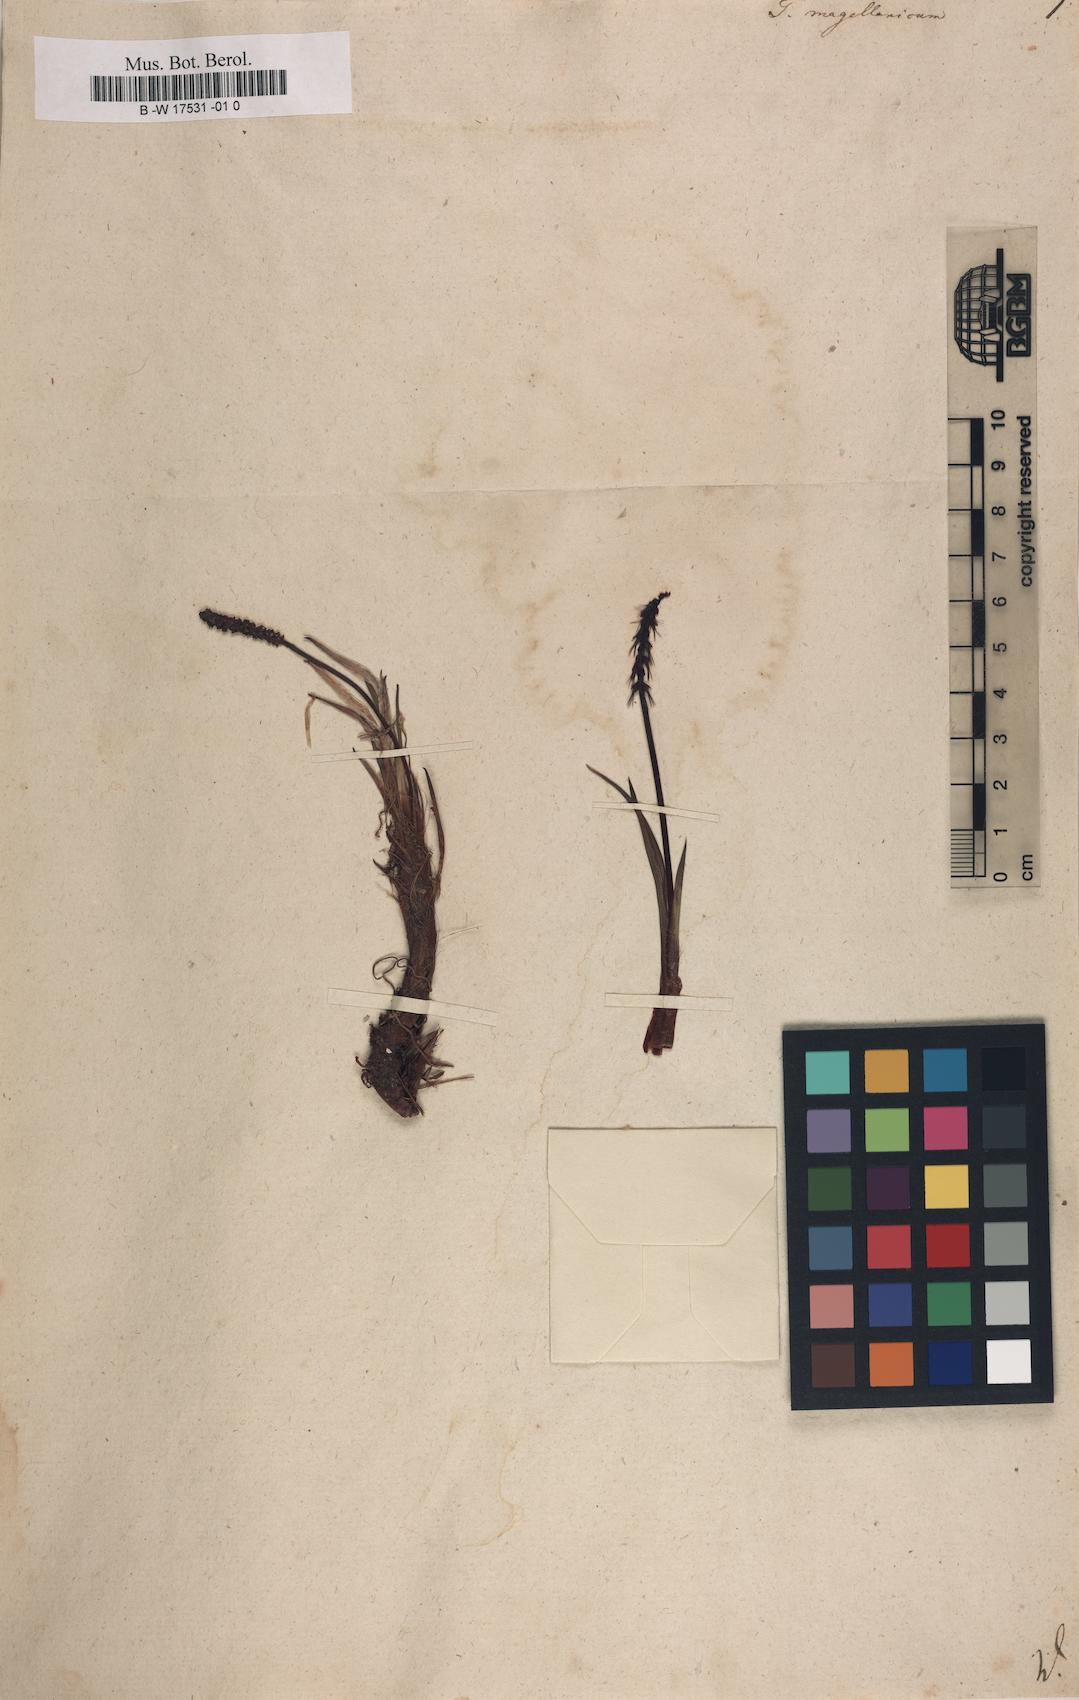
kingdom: Plantae
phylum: Tracheophyta
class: Liliopsida
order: Alismatales
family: Juncaginaceae
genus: Tetroncium
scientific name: Tetroncium magellanicum
